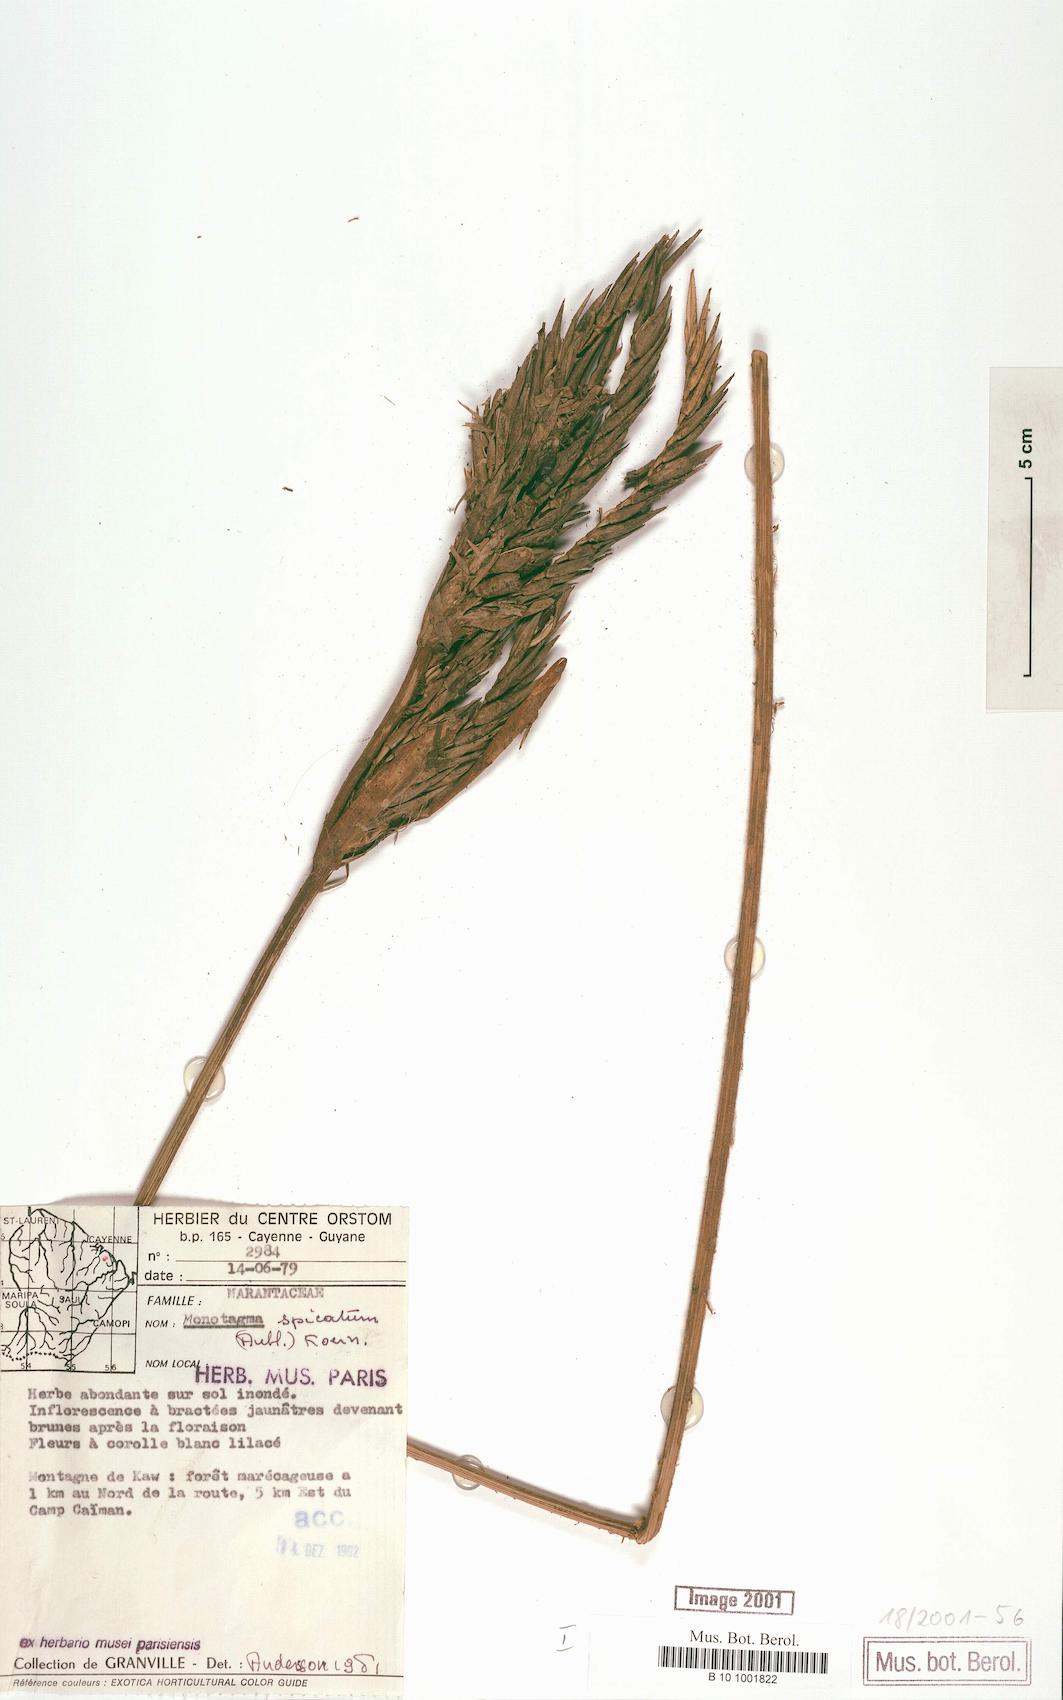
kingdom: Plantae
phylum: Tracheophyta
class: Liliopsida
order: Zingiberales
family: Marantaceae
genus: Monotagma
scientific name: Monotagma spicatum
